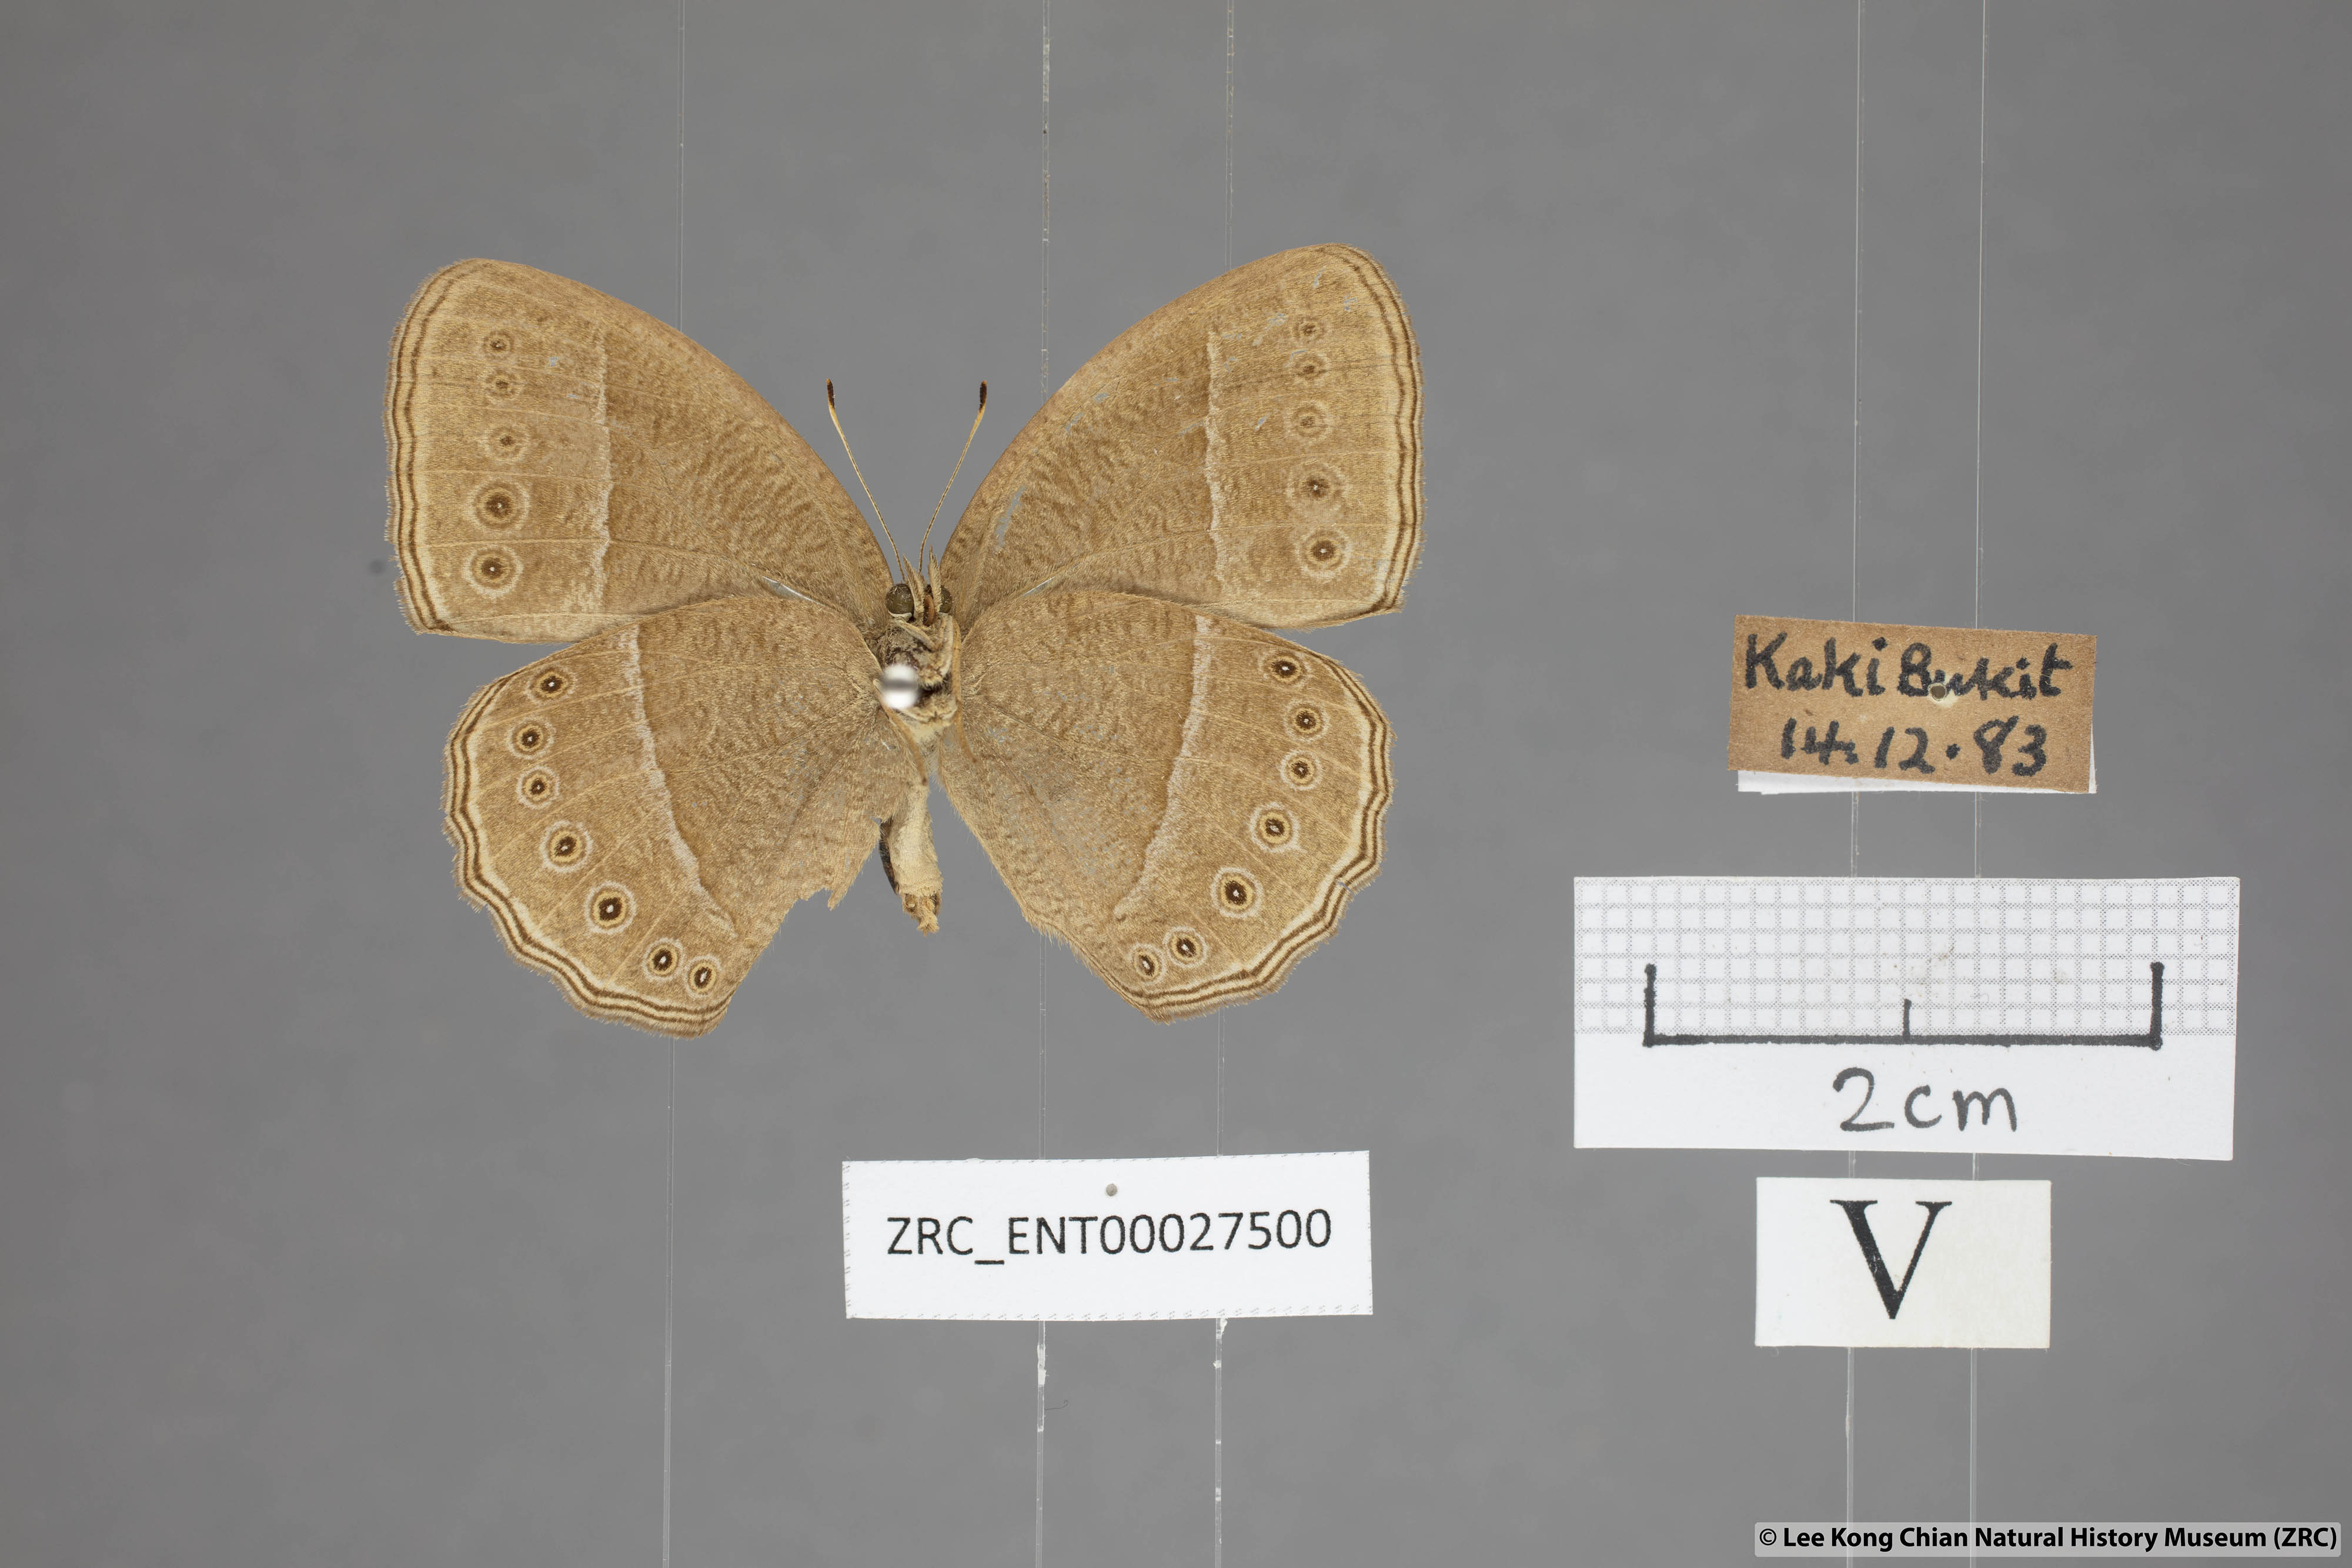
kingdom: Animalia
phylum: Arthropoda
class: Insecta
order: Lepidoptera
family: Nymphalidae
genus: Mycalesis
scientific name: Mycalesis janardana
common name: Common bush brown
